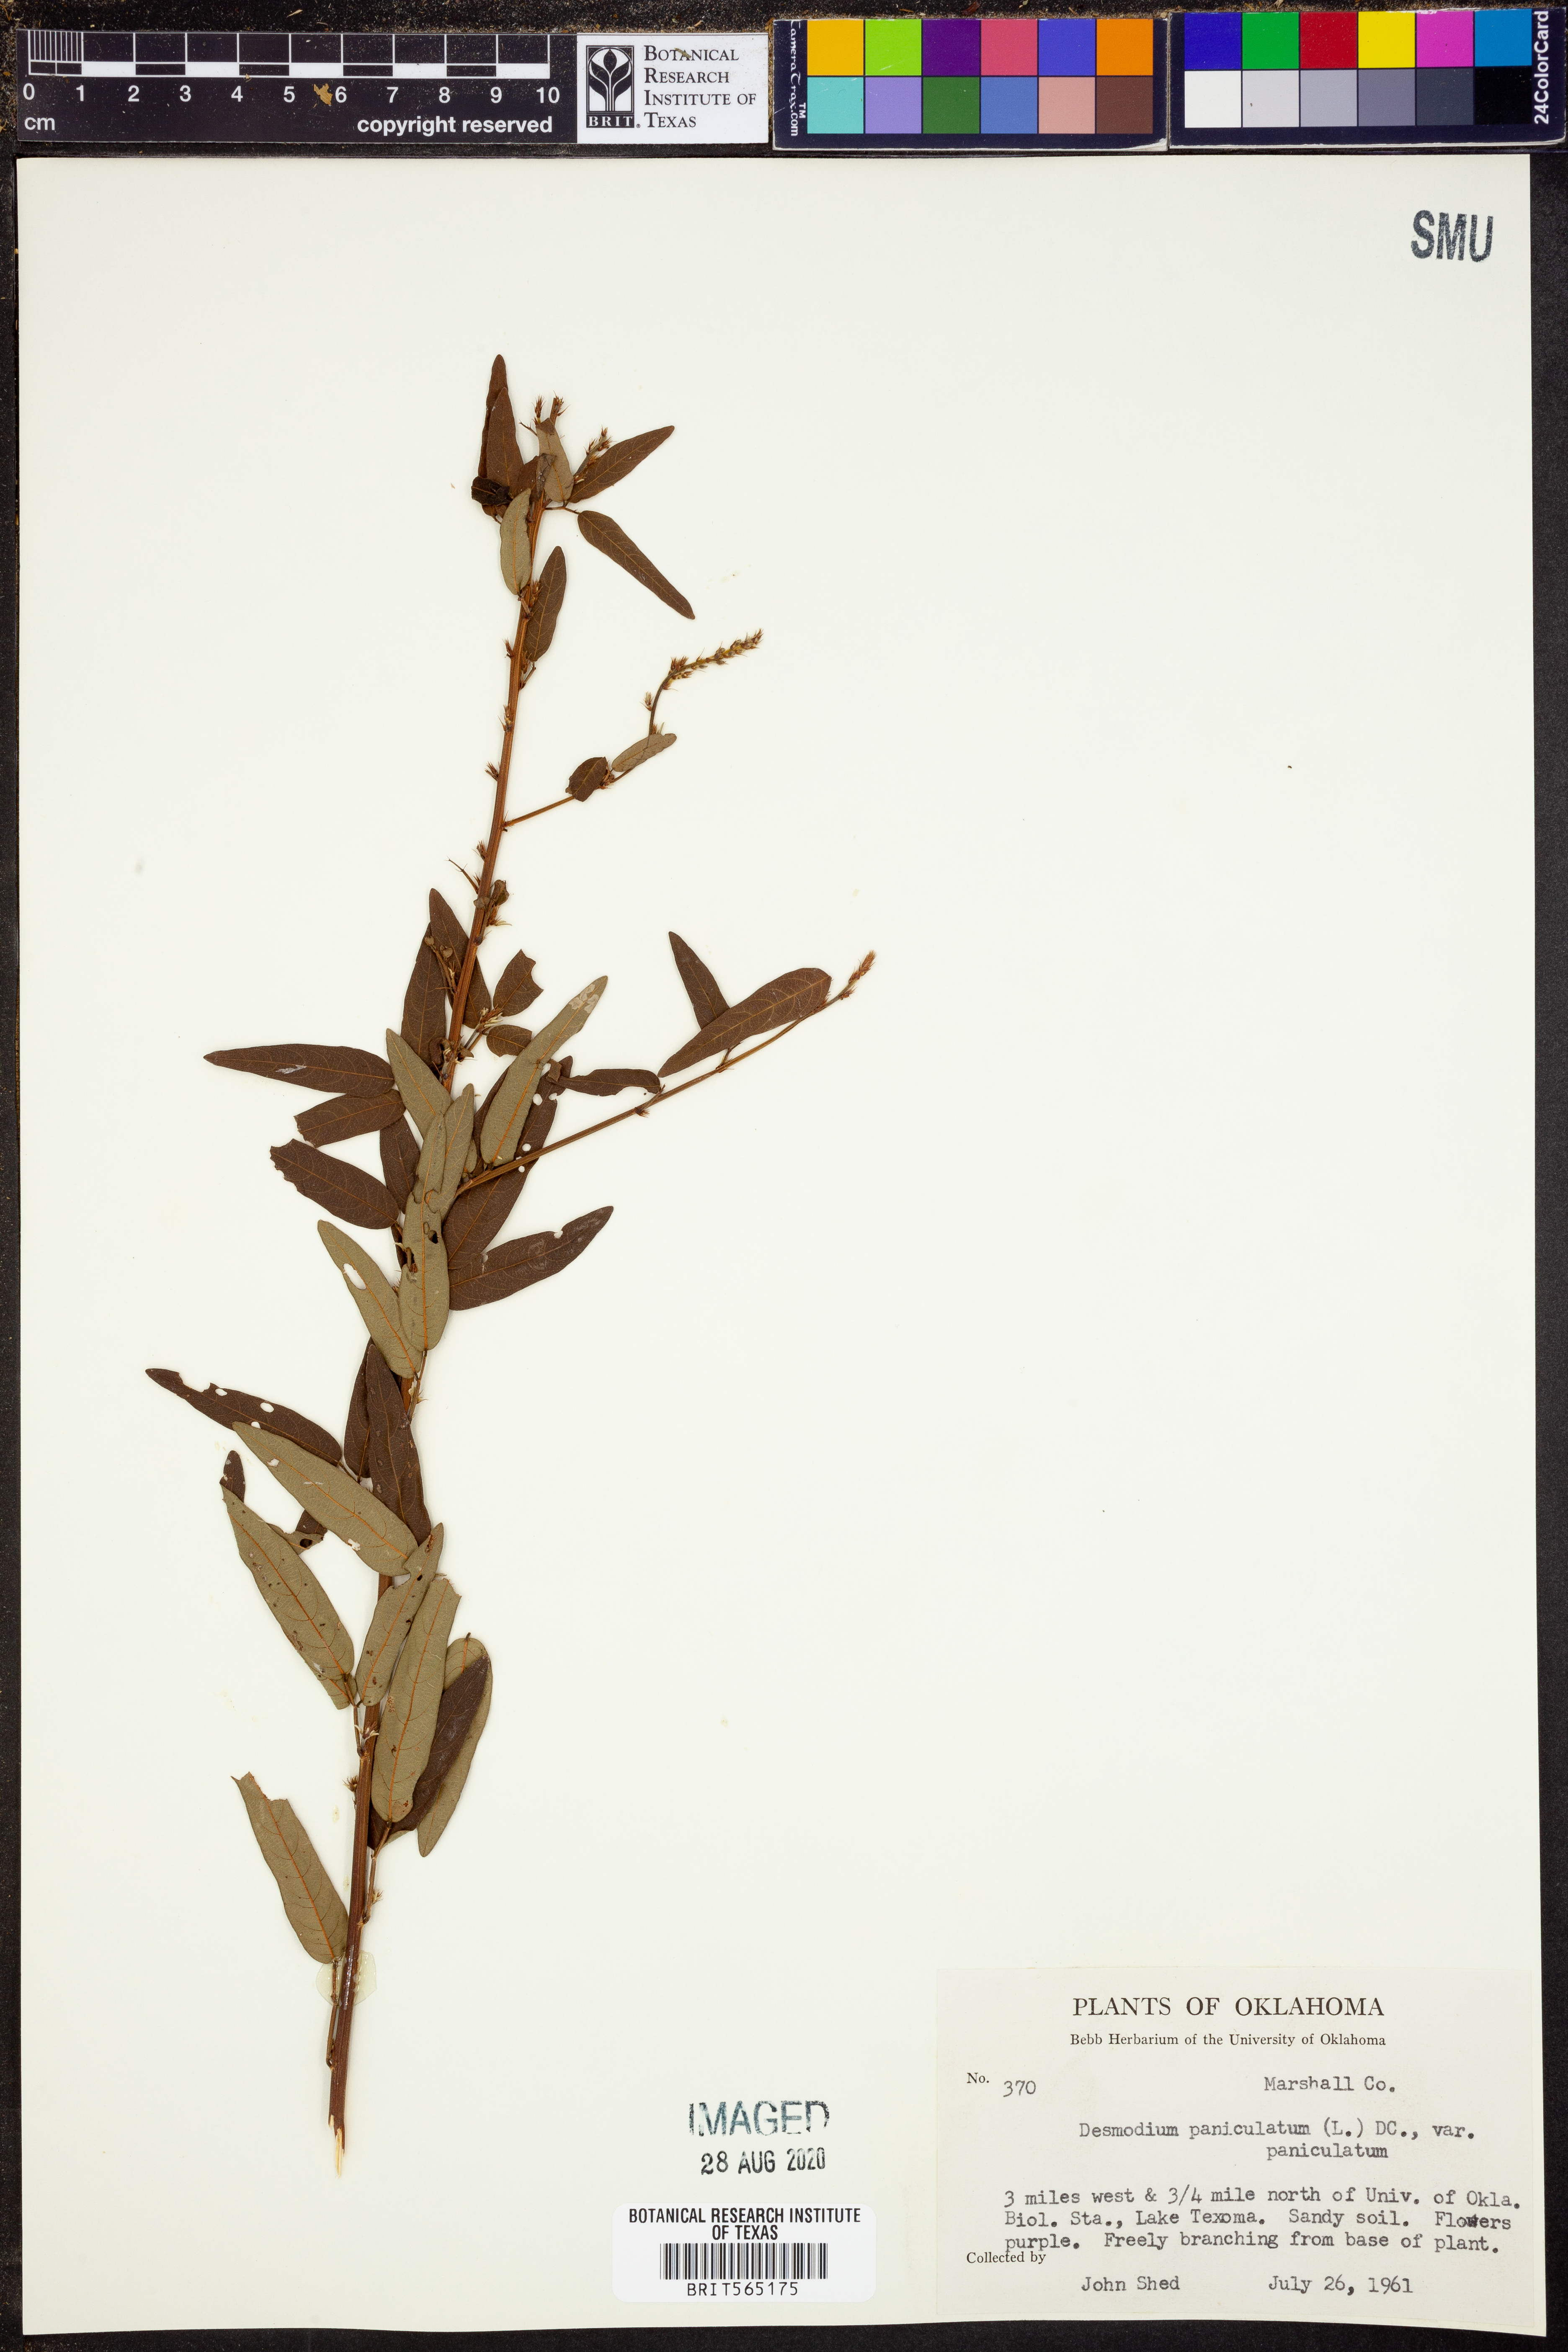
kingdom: Plantae
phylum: Tracheophyta
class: Magnoliopsida
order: Fabales
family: Fabaceae
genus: Desmodium
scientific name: Desmodium paniculatum
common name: Panicled tick-clover
